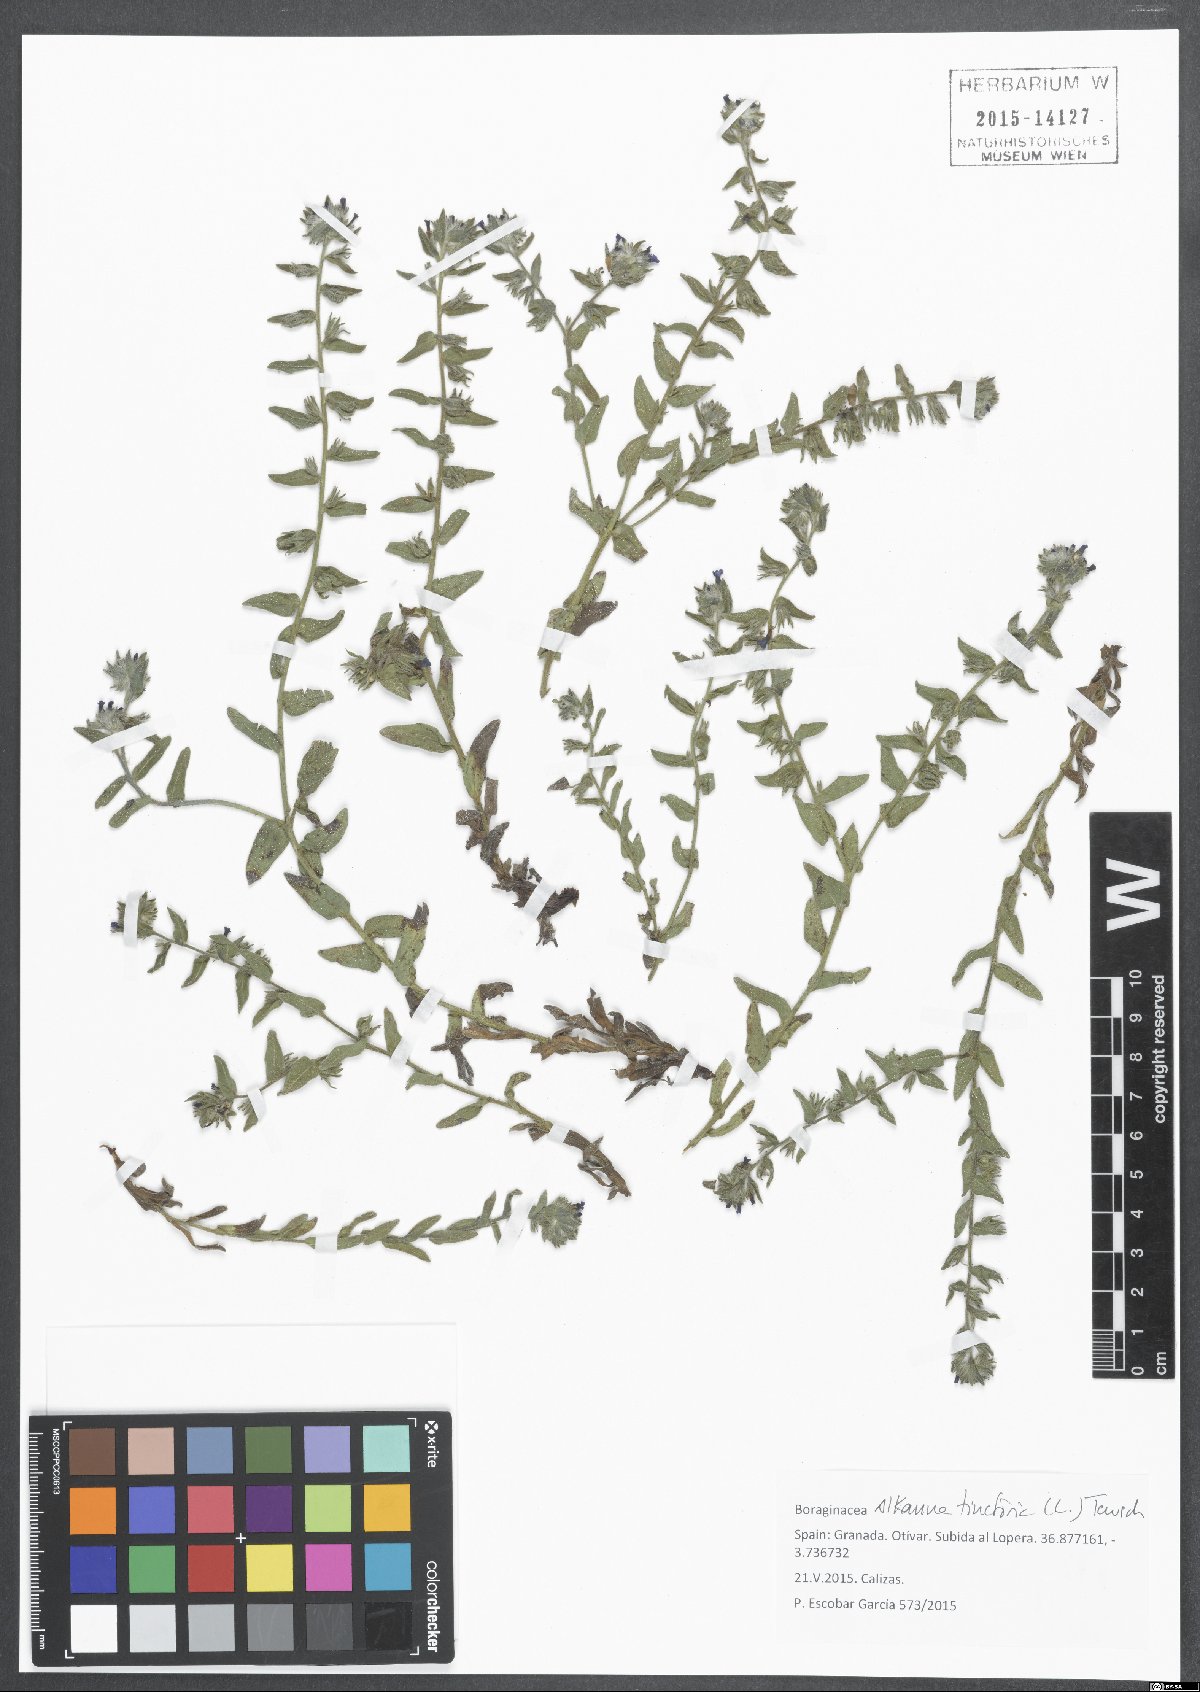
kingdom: Plantae
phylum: Tracheophyta
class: Magnoliopsida
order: Boraginales
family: Boraginaceae
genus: Alkanna
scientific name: Alkanna tinctoria
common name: Dyer's-alkanet
